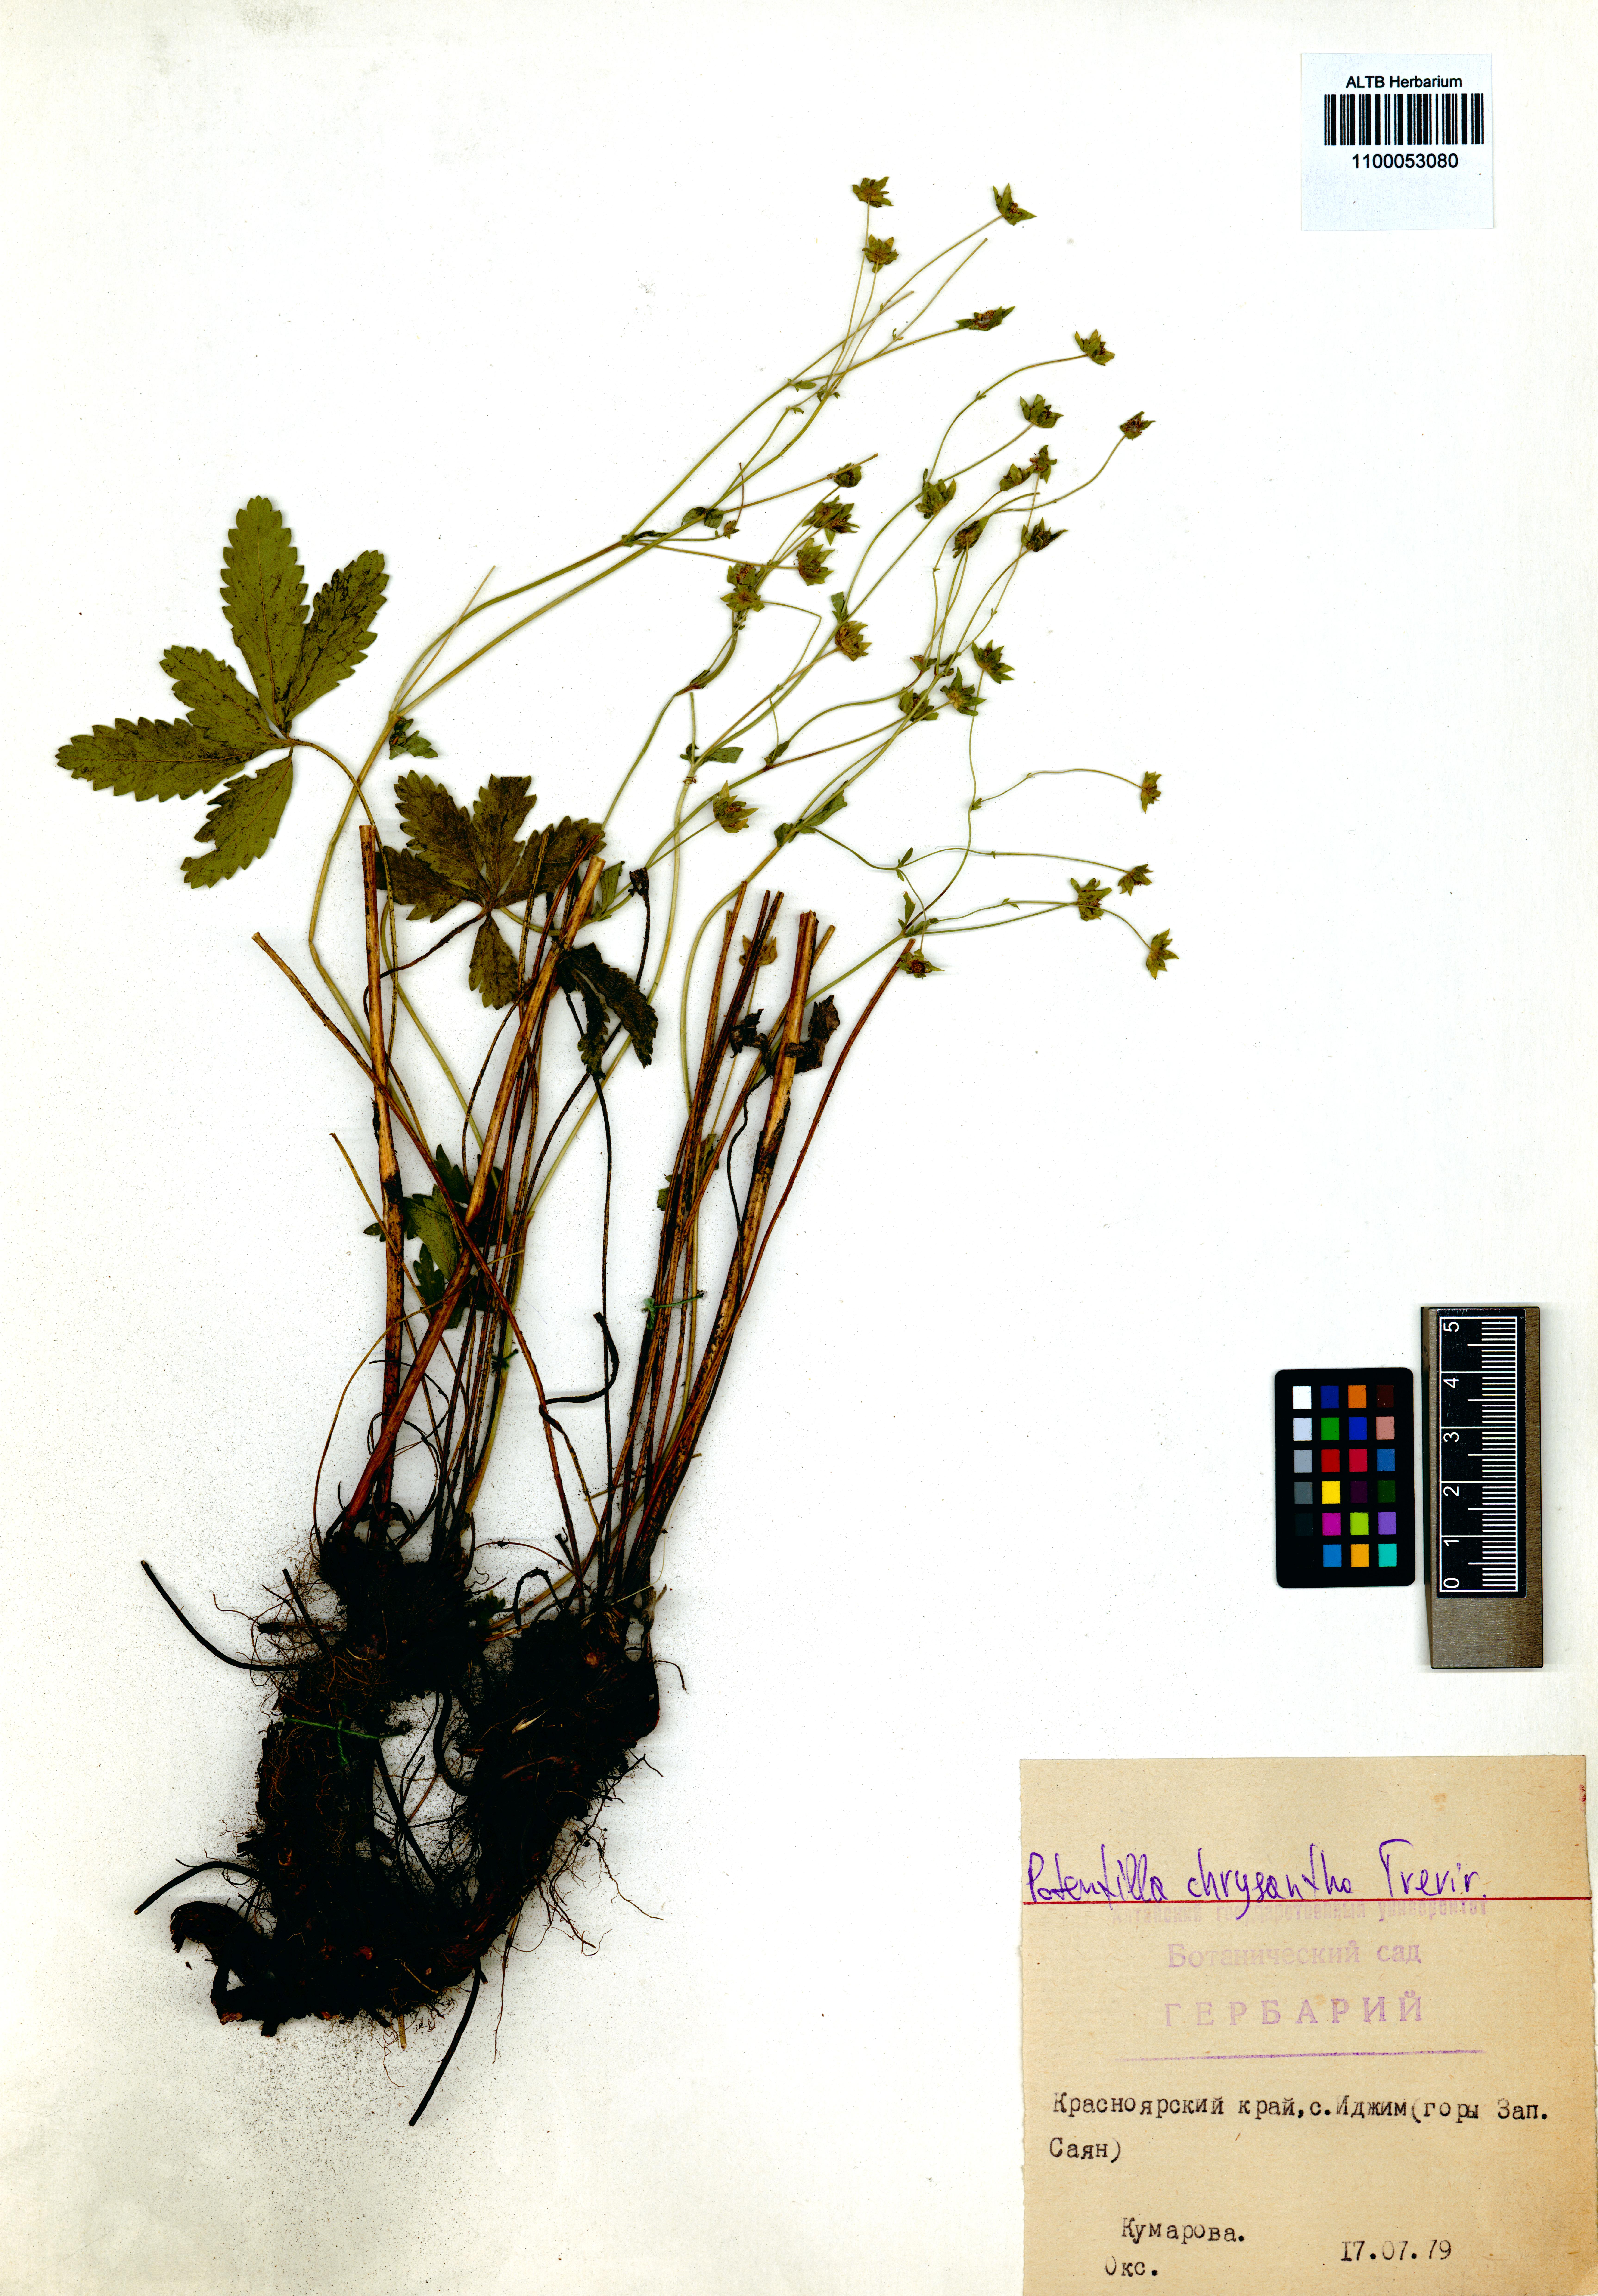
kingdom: Plantae
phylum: Tracheophyta
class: Magnoliopsida
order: Rosales
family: Rosaceae
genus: Potentilla
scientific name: Potentilla chrysantha
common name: Thuringian cinquefoil
